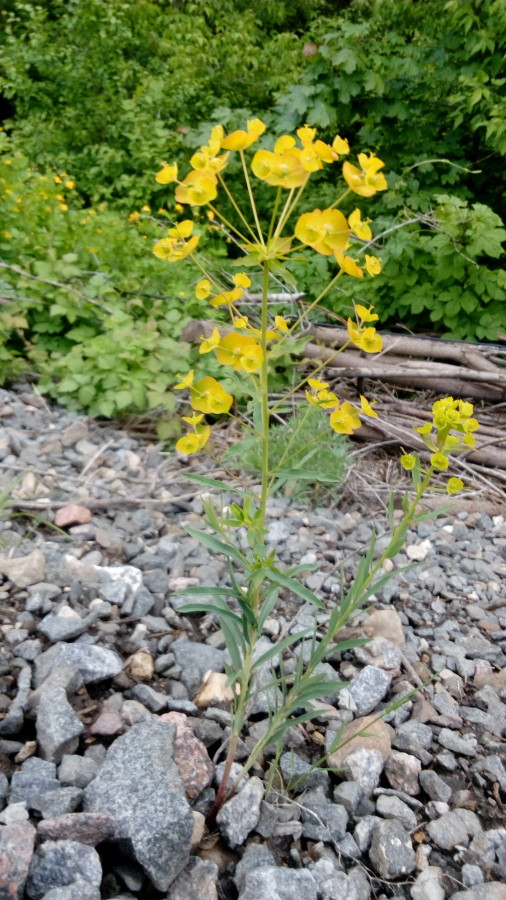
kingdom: Plantae
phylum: Tracheophyta
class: Magnoliopsida
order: Malpighiales
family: Euphorbiaceae
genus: Euphorbia
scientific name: Euphorbia virgata
